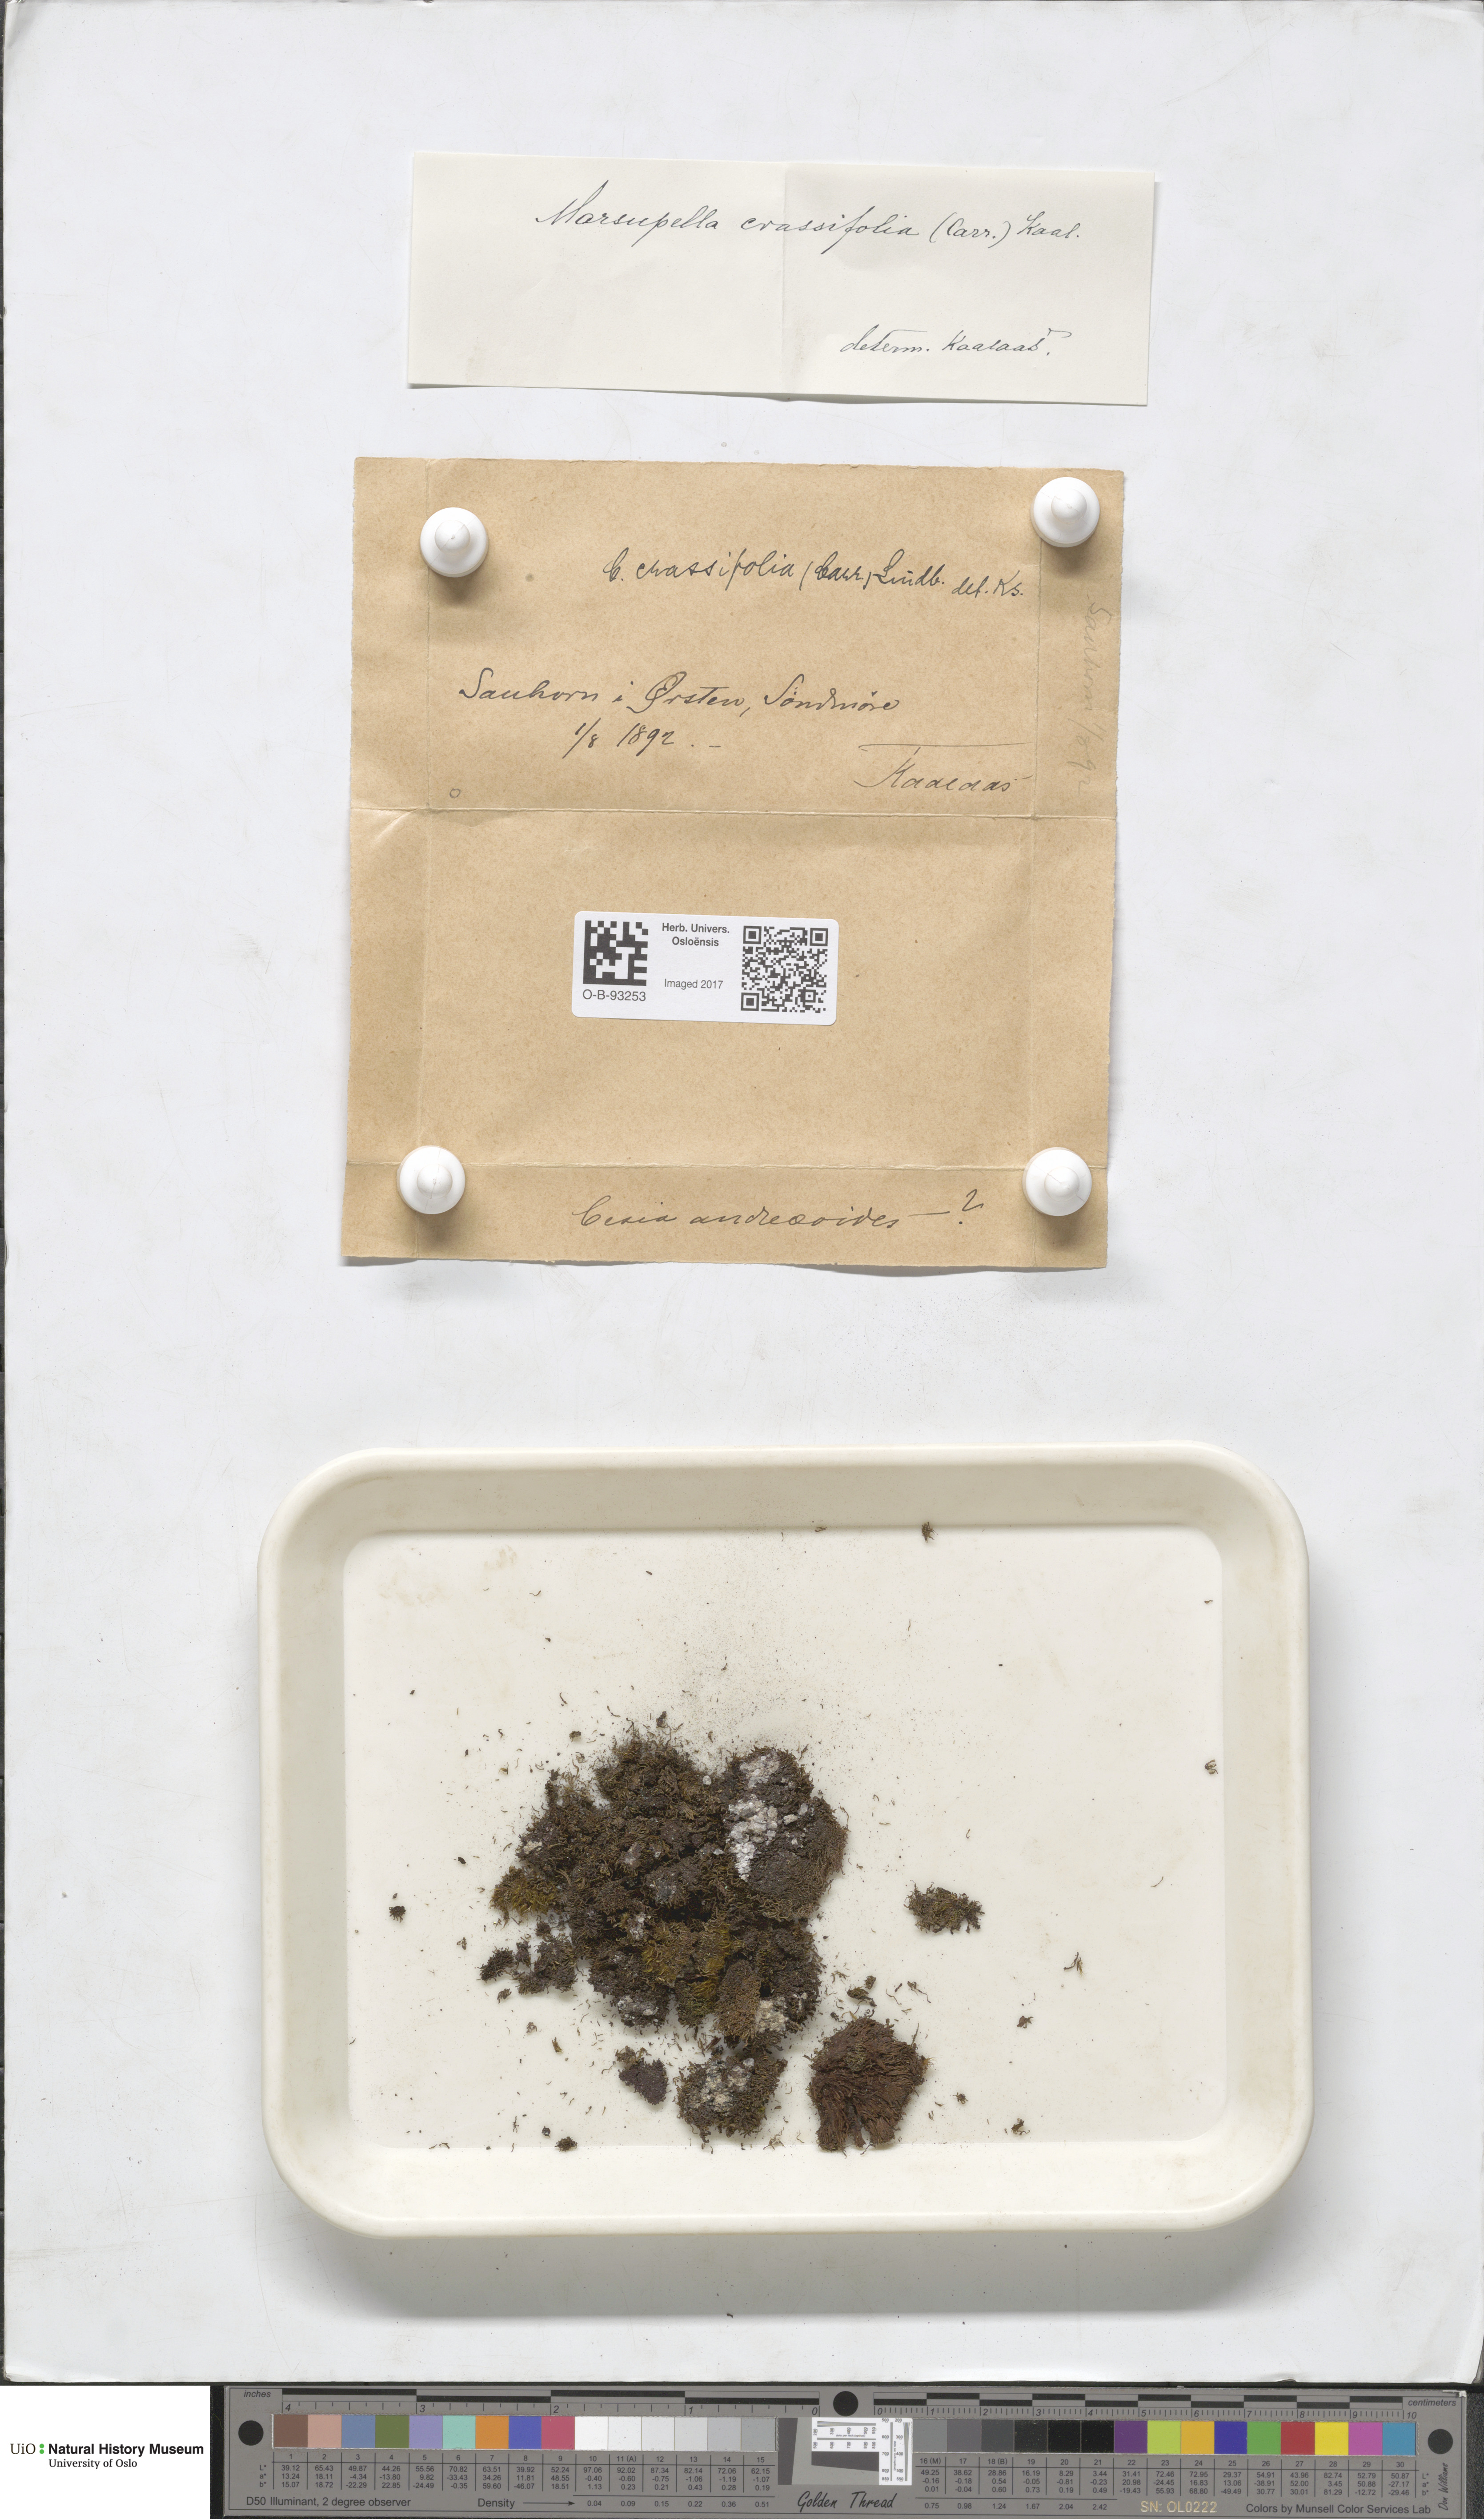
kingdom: Plantae
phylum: Marchantiophyta
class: Jungermanniopsida
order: Jungermanniales
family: Gymnomitriaceae
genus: Gymnomitrion
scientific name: Gymnomitrion brevissimum
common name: Snow rustwort
